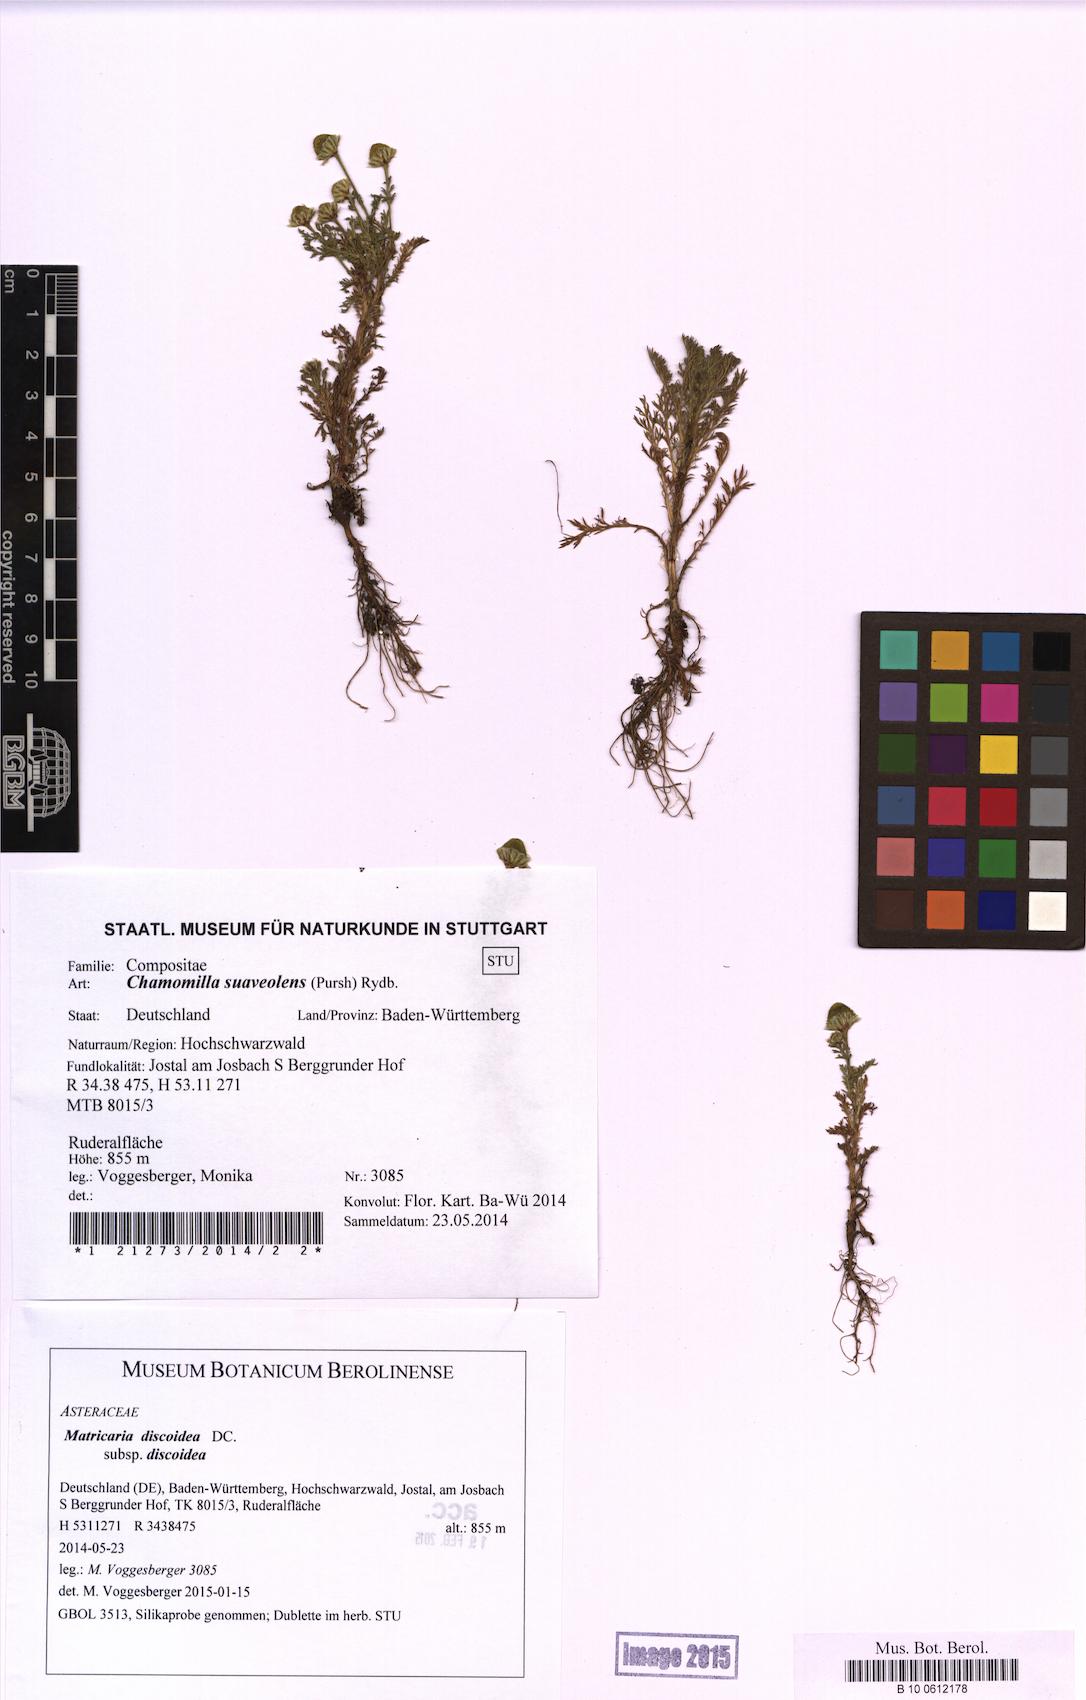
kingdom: Plantae
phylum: Tracheophyta
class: Magnoliopsida
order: Asterales
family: Asteraceae
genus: Matricaria
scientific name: Matricaria discoidea
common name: Disc mayweed
